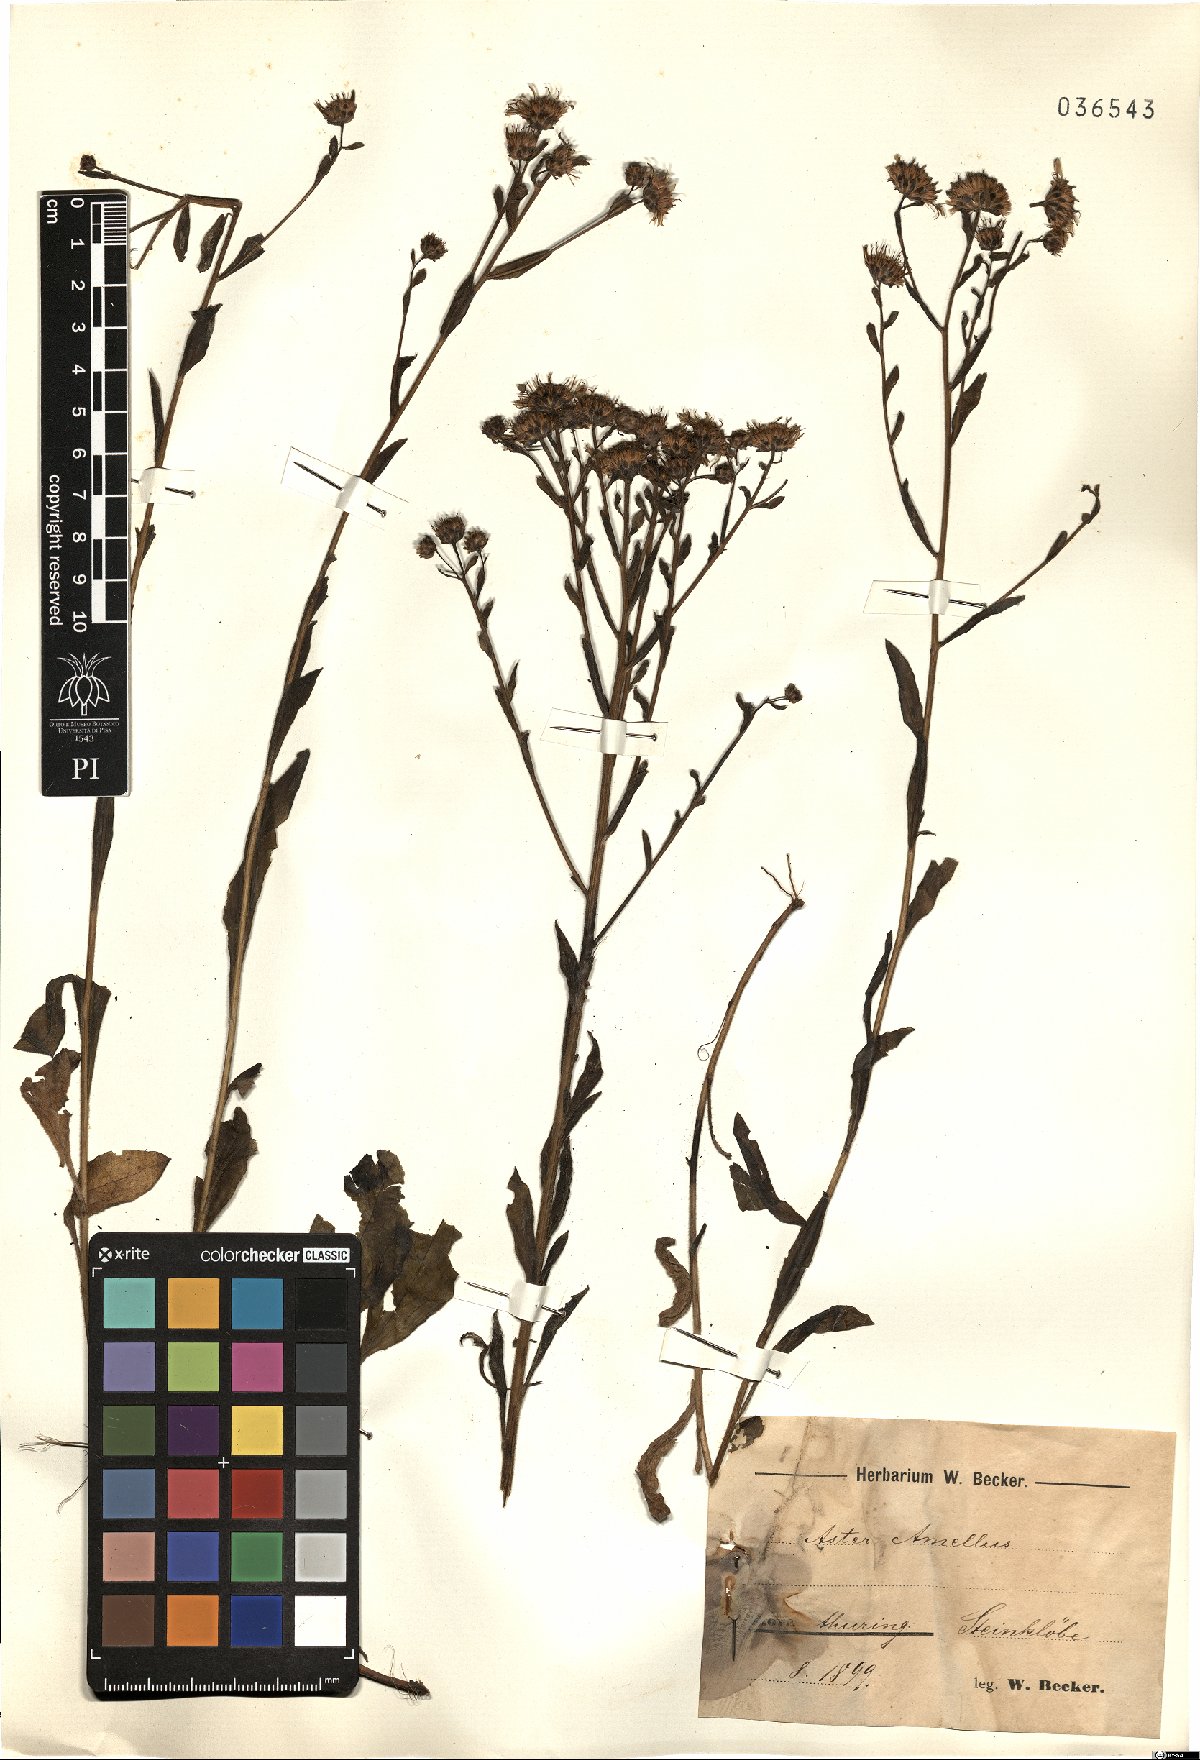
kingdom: Plantae
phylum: Tracheophyta
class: Magnoliopsida
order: Asterales
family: Asteraceae
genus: Aster
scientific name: Aster amellus
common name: European michaelmas daisy
